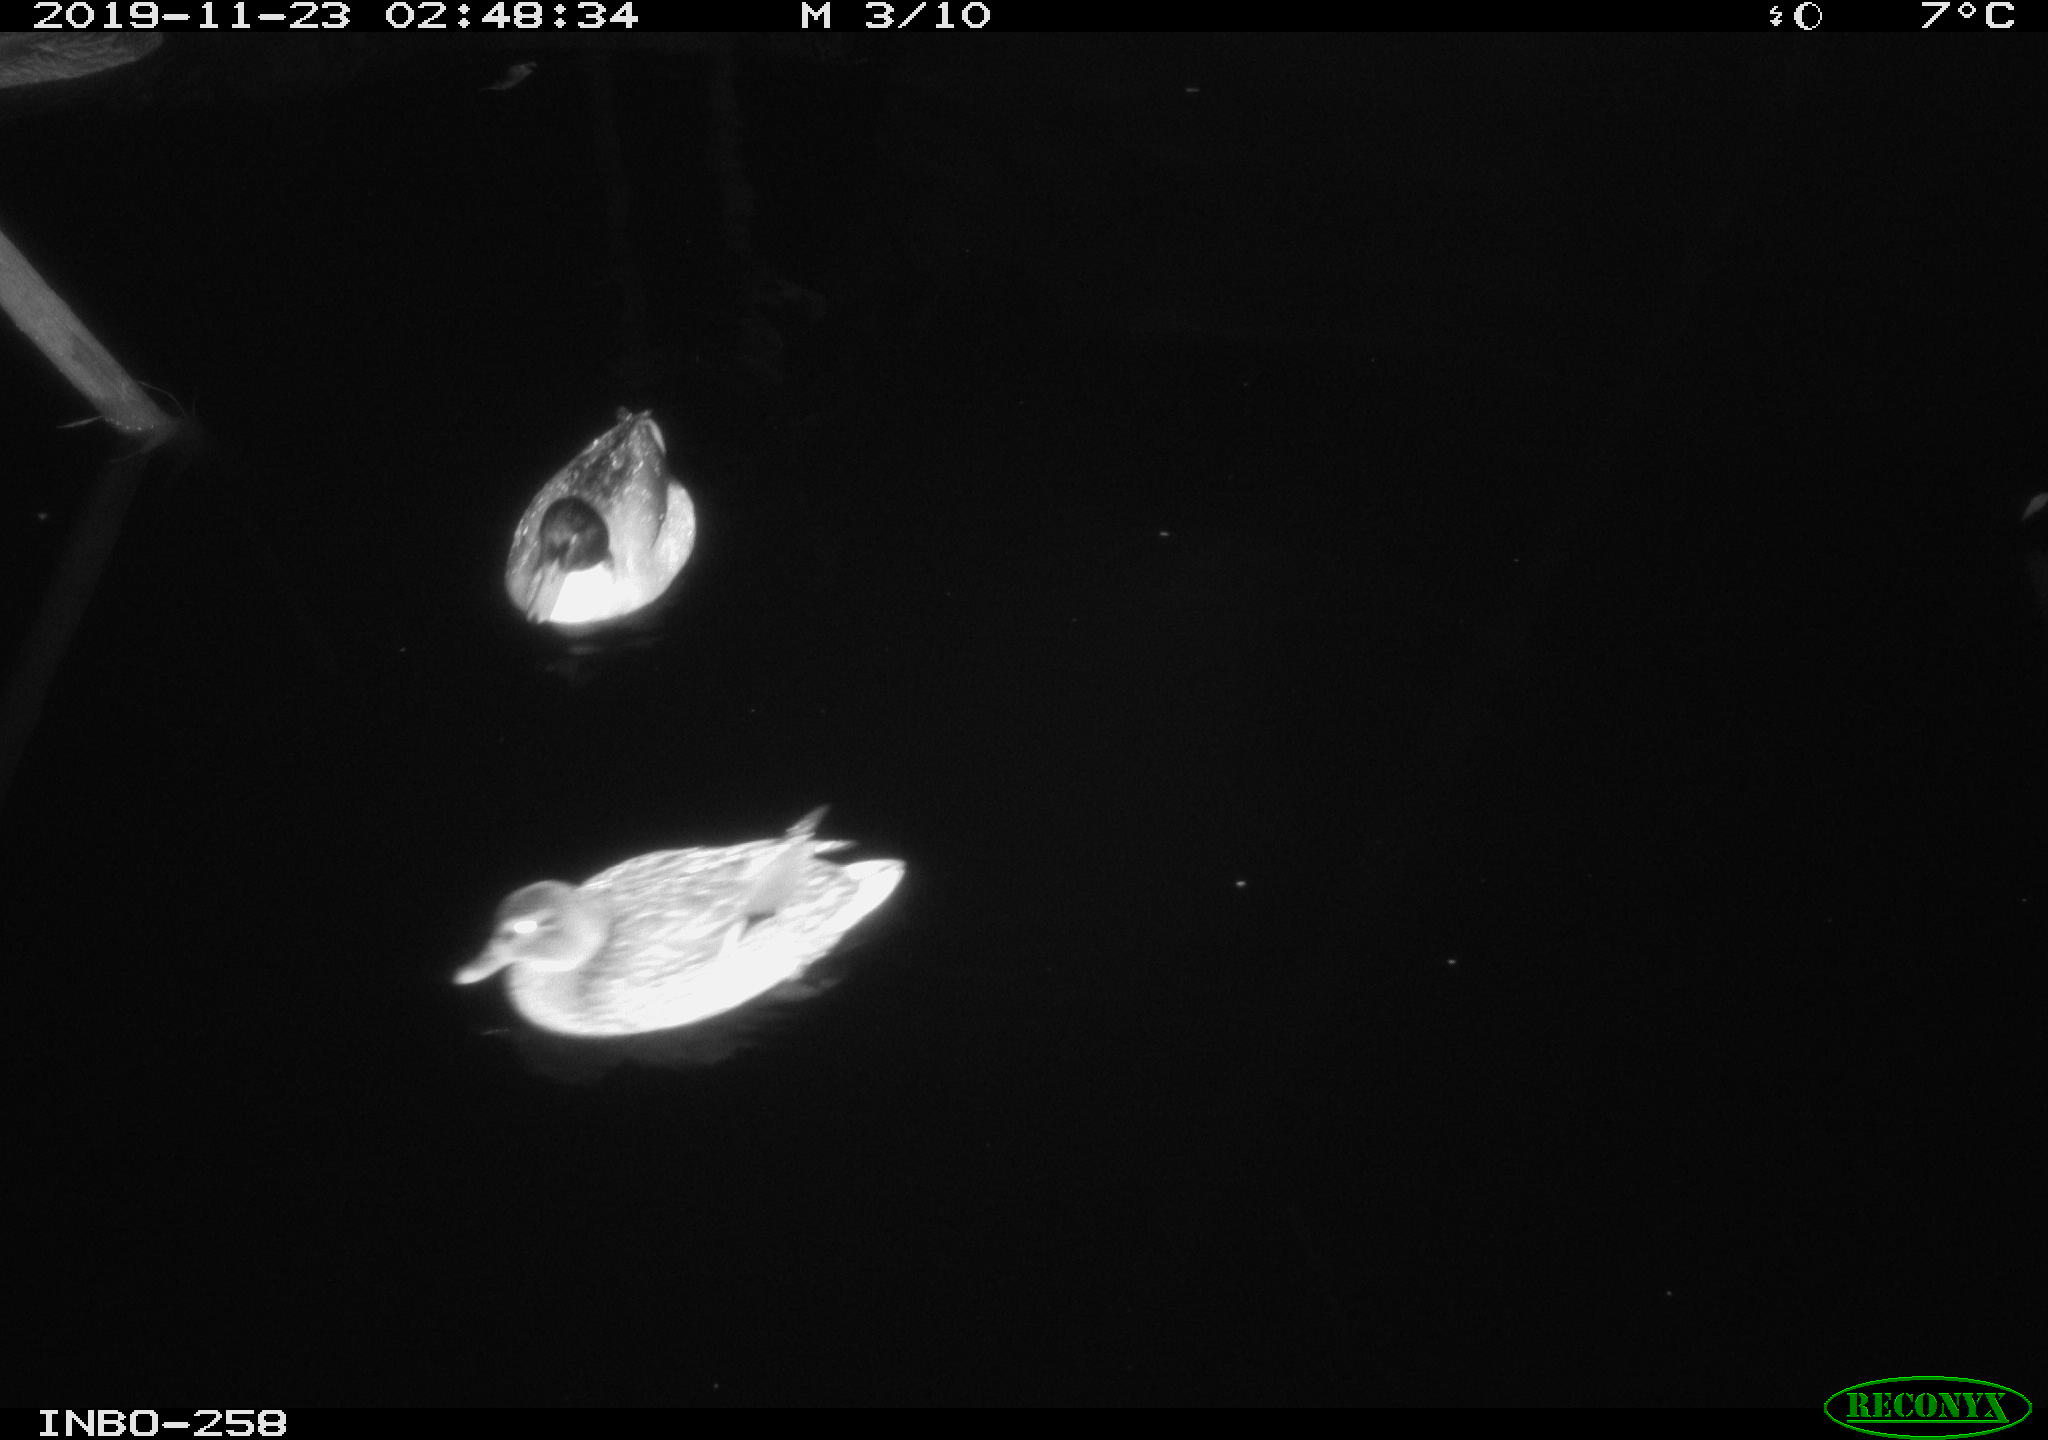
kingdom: Animalia
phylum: Chordata
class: Aves
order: Anseriformes
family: Anatidae
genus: Anas
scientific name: Anas platyrhynchos
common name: Mallard
